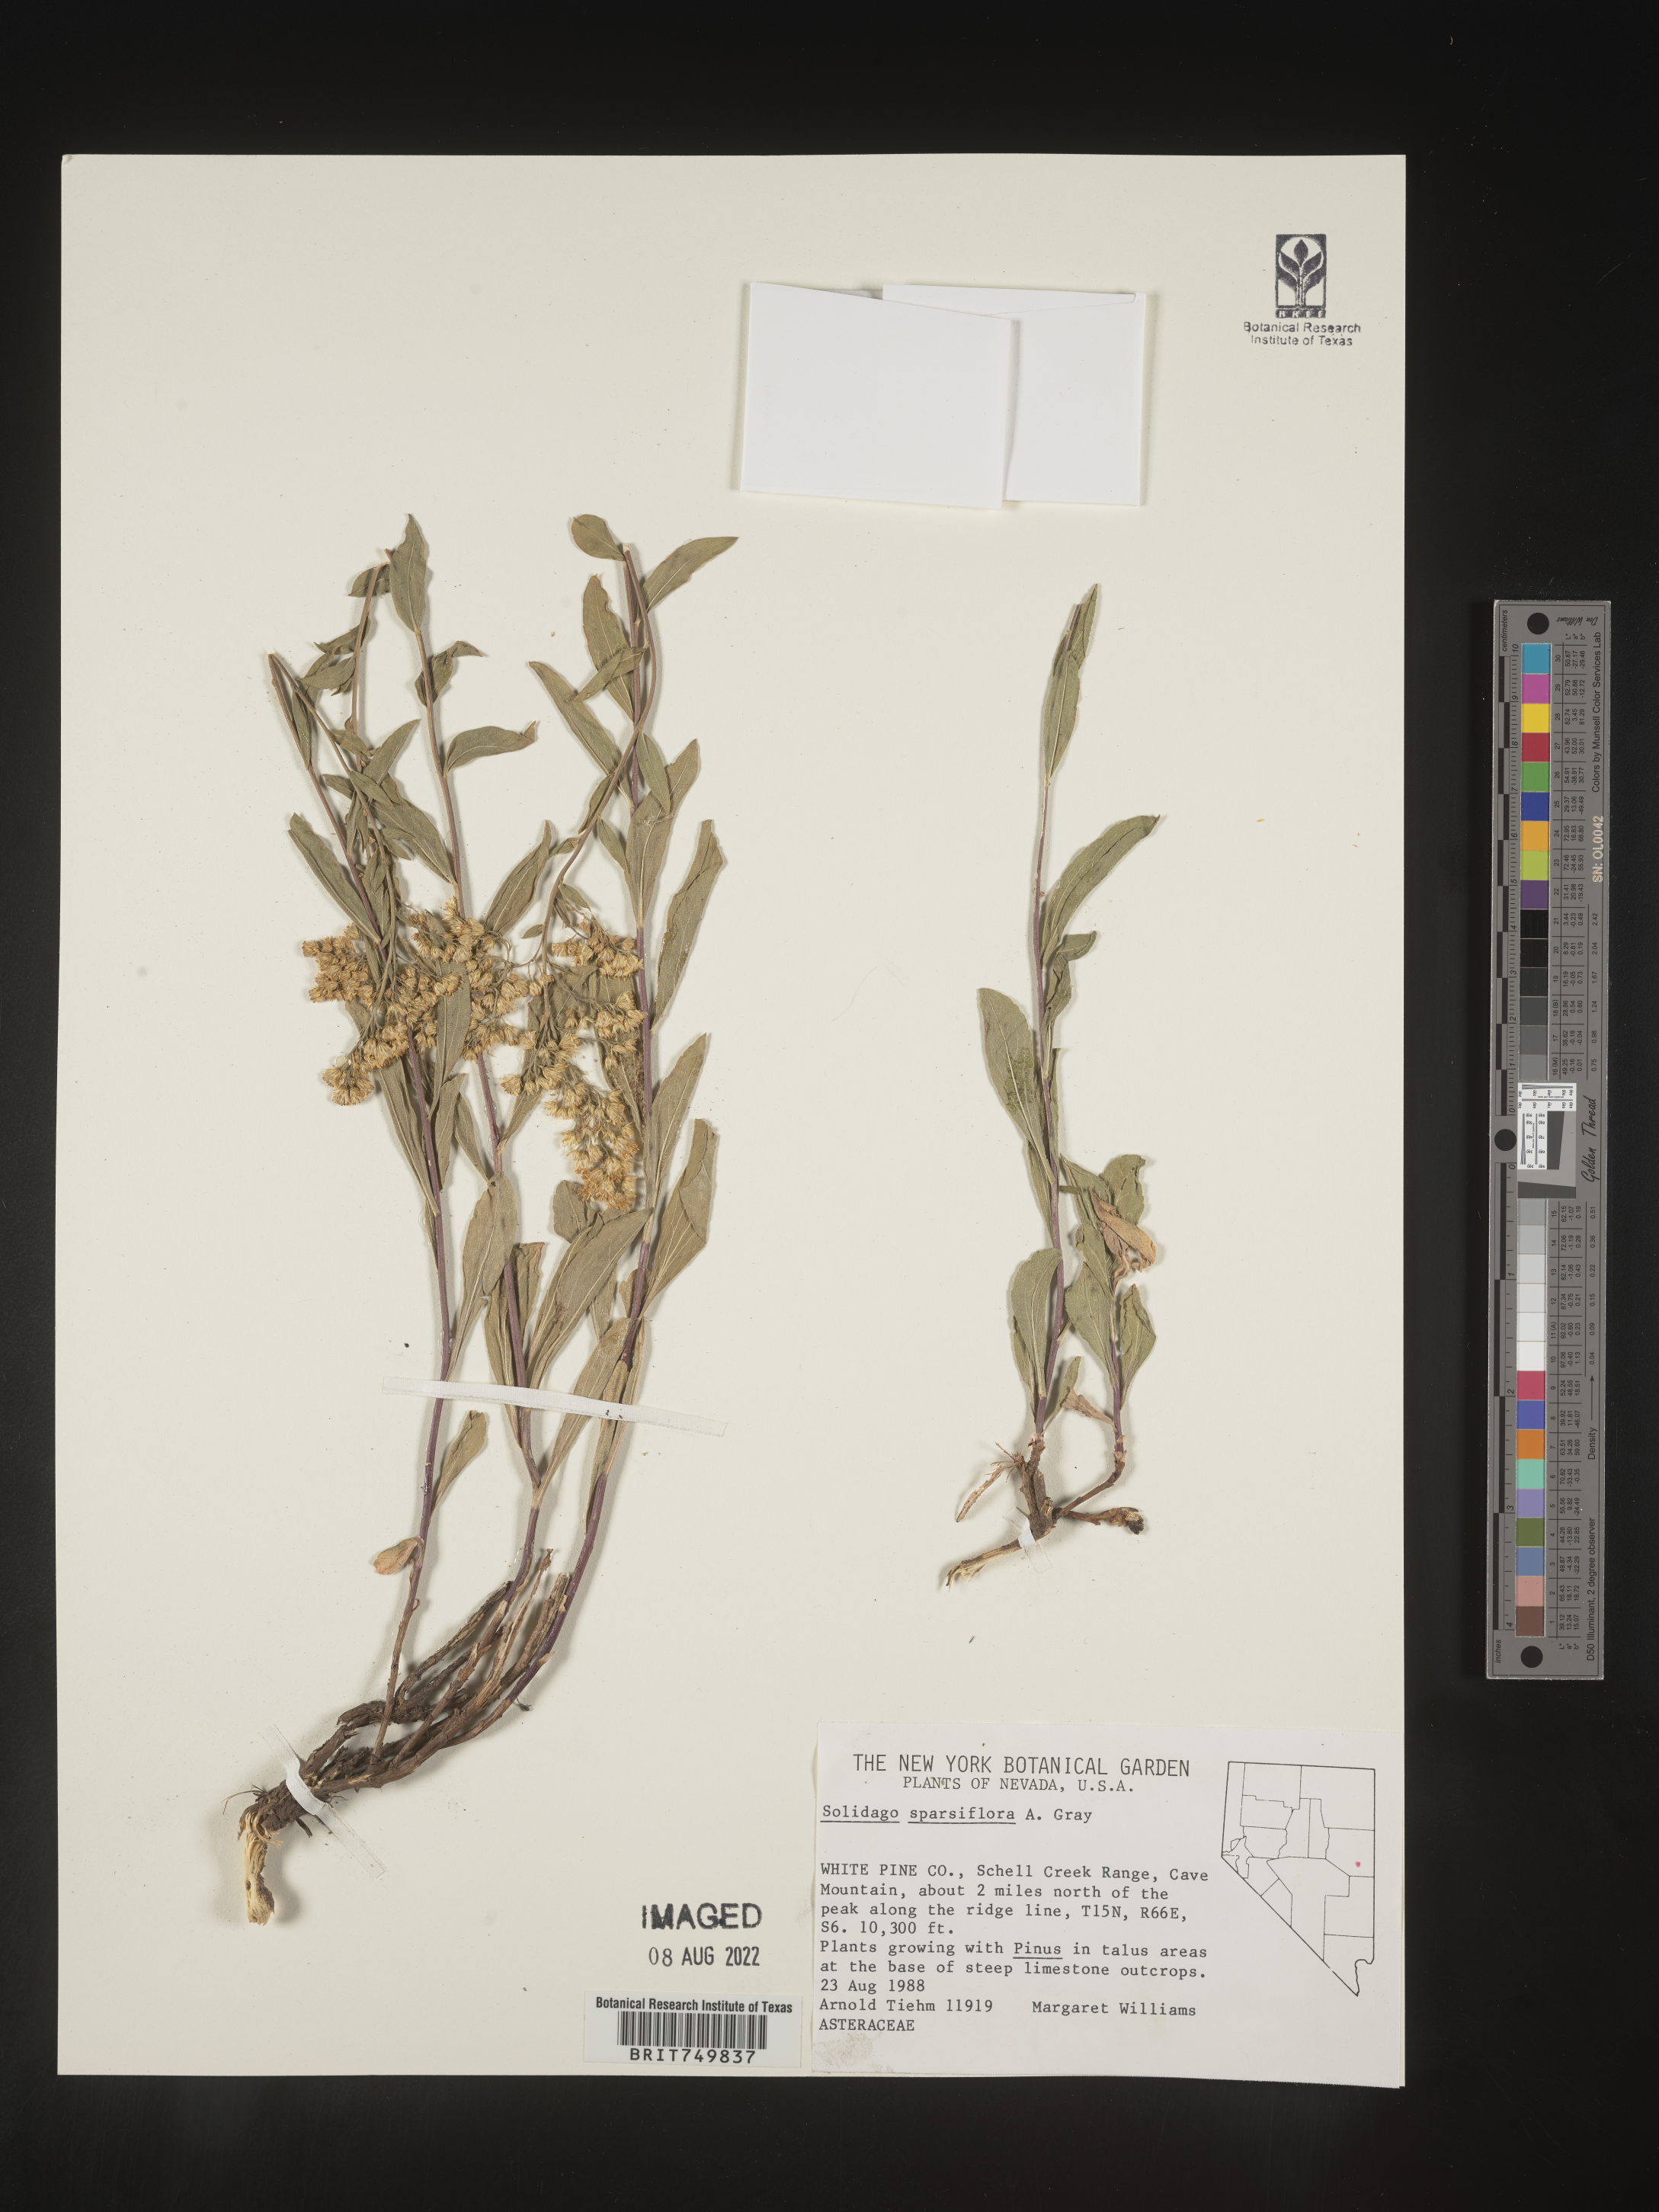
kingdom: Plantae
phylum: Tracheophyta
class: Magnoliopsida
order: Asterales
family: Asteraceae
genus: Solidago
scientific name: Solidago velutina
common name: Three-nerve goldenrod
